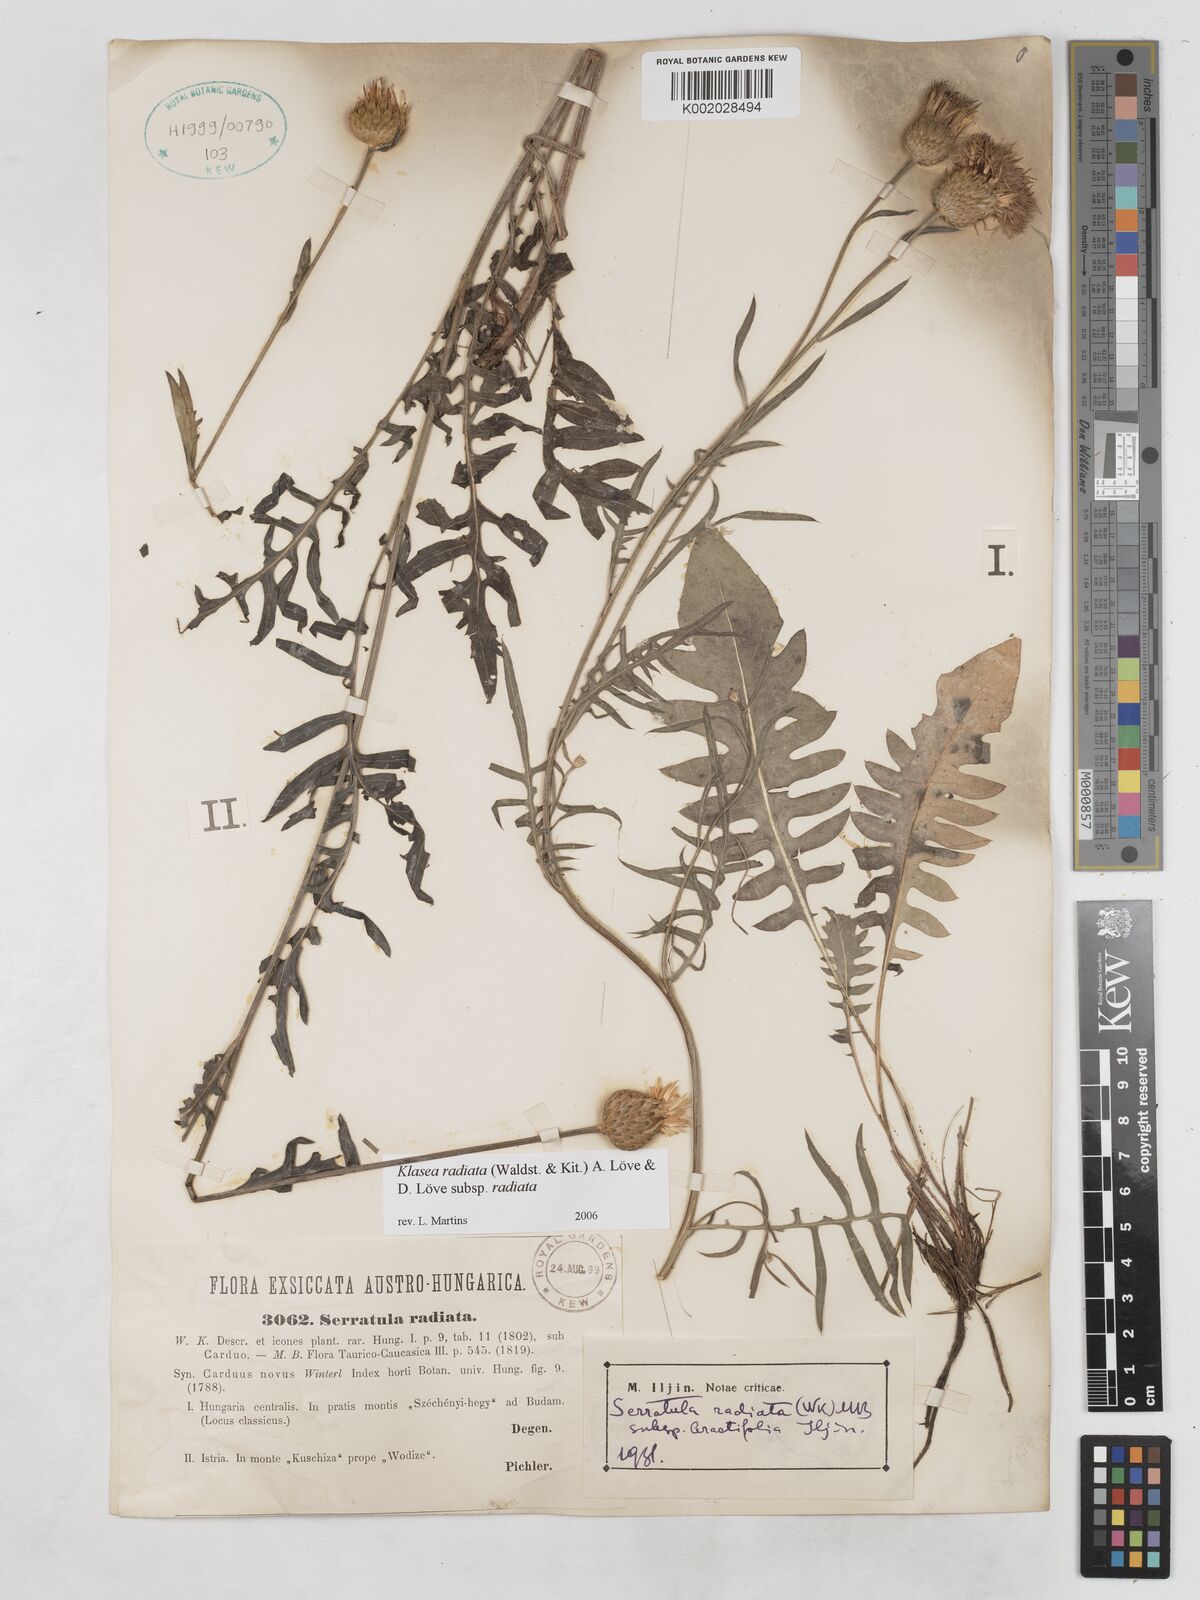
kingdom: Plantae
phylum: Tracheophyta
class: Magnoliopsida
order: Asterales
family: Asteraceae
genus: Klasea
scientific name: Klasea radiata
